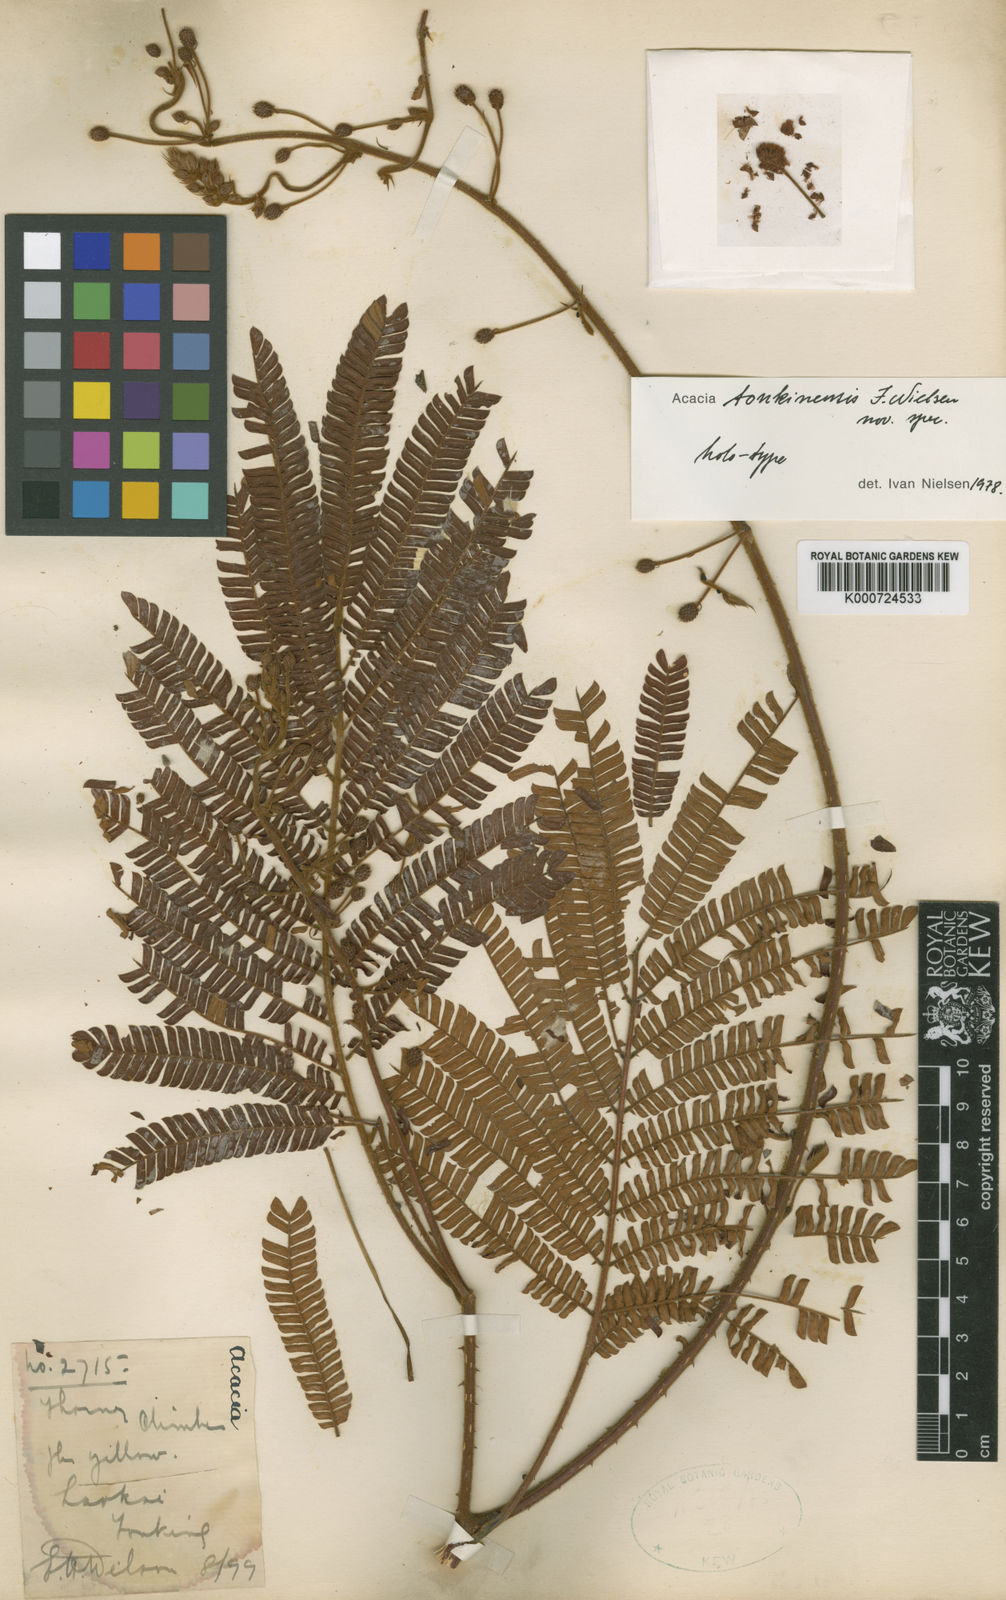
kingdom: Plantae
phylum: Tracheophyta
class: Magnoliopsida
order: Fabales
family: Fabaceae
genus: Senegalia
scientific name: Senegalia tonkinensis
